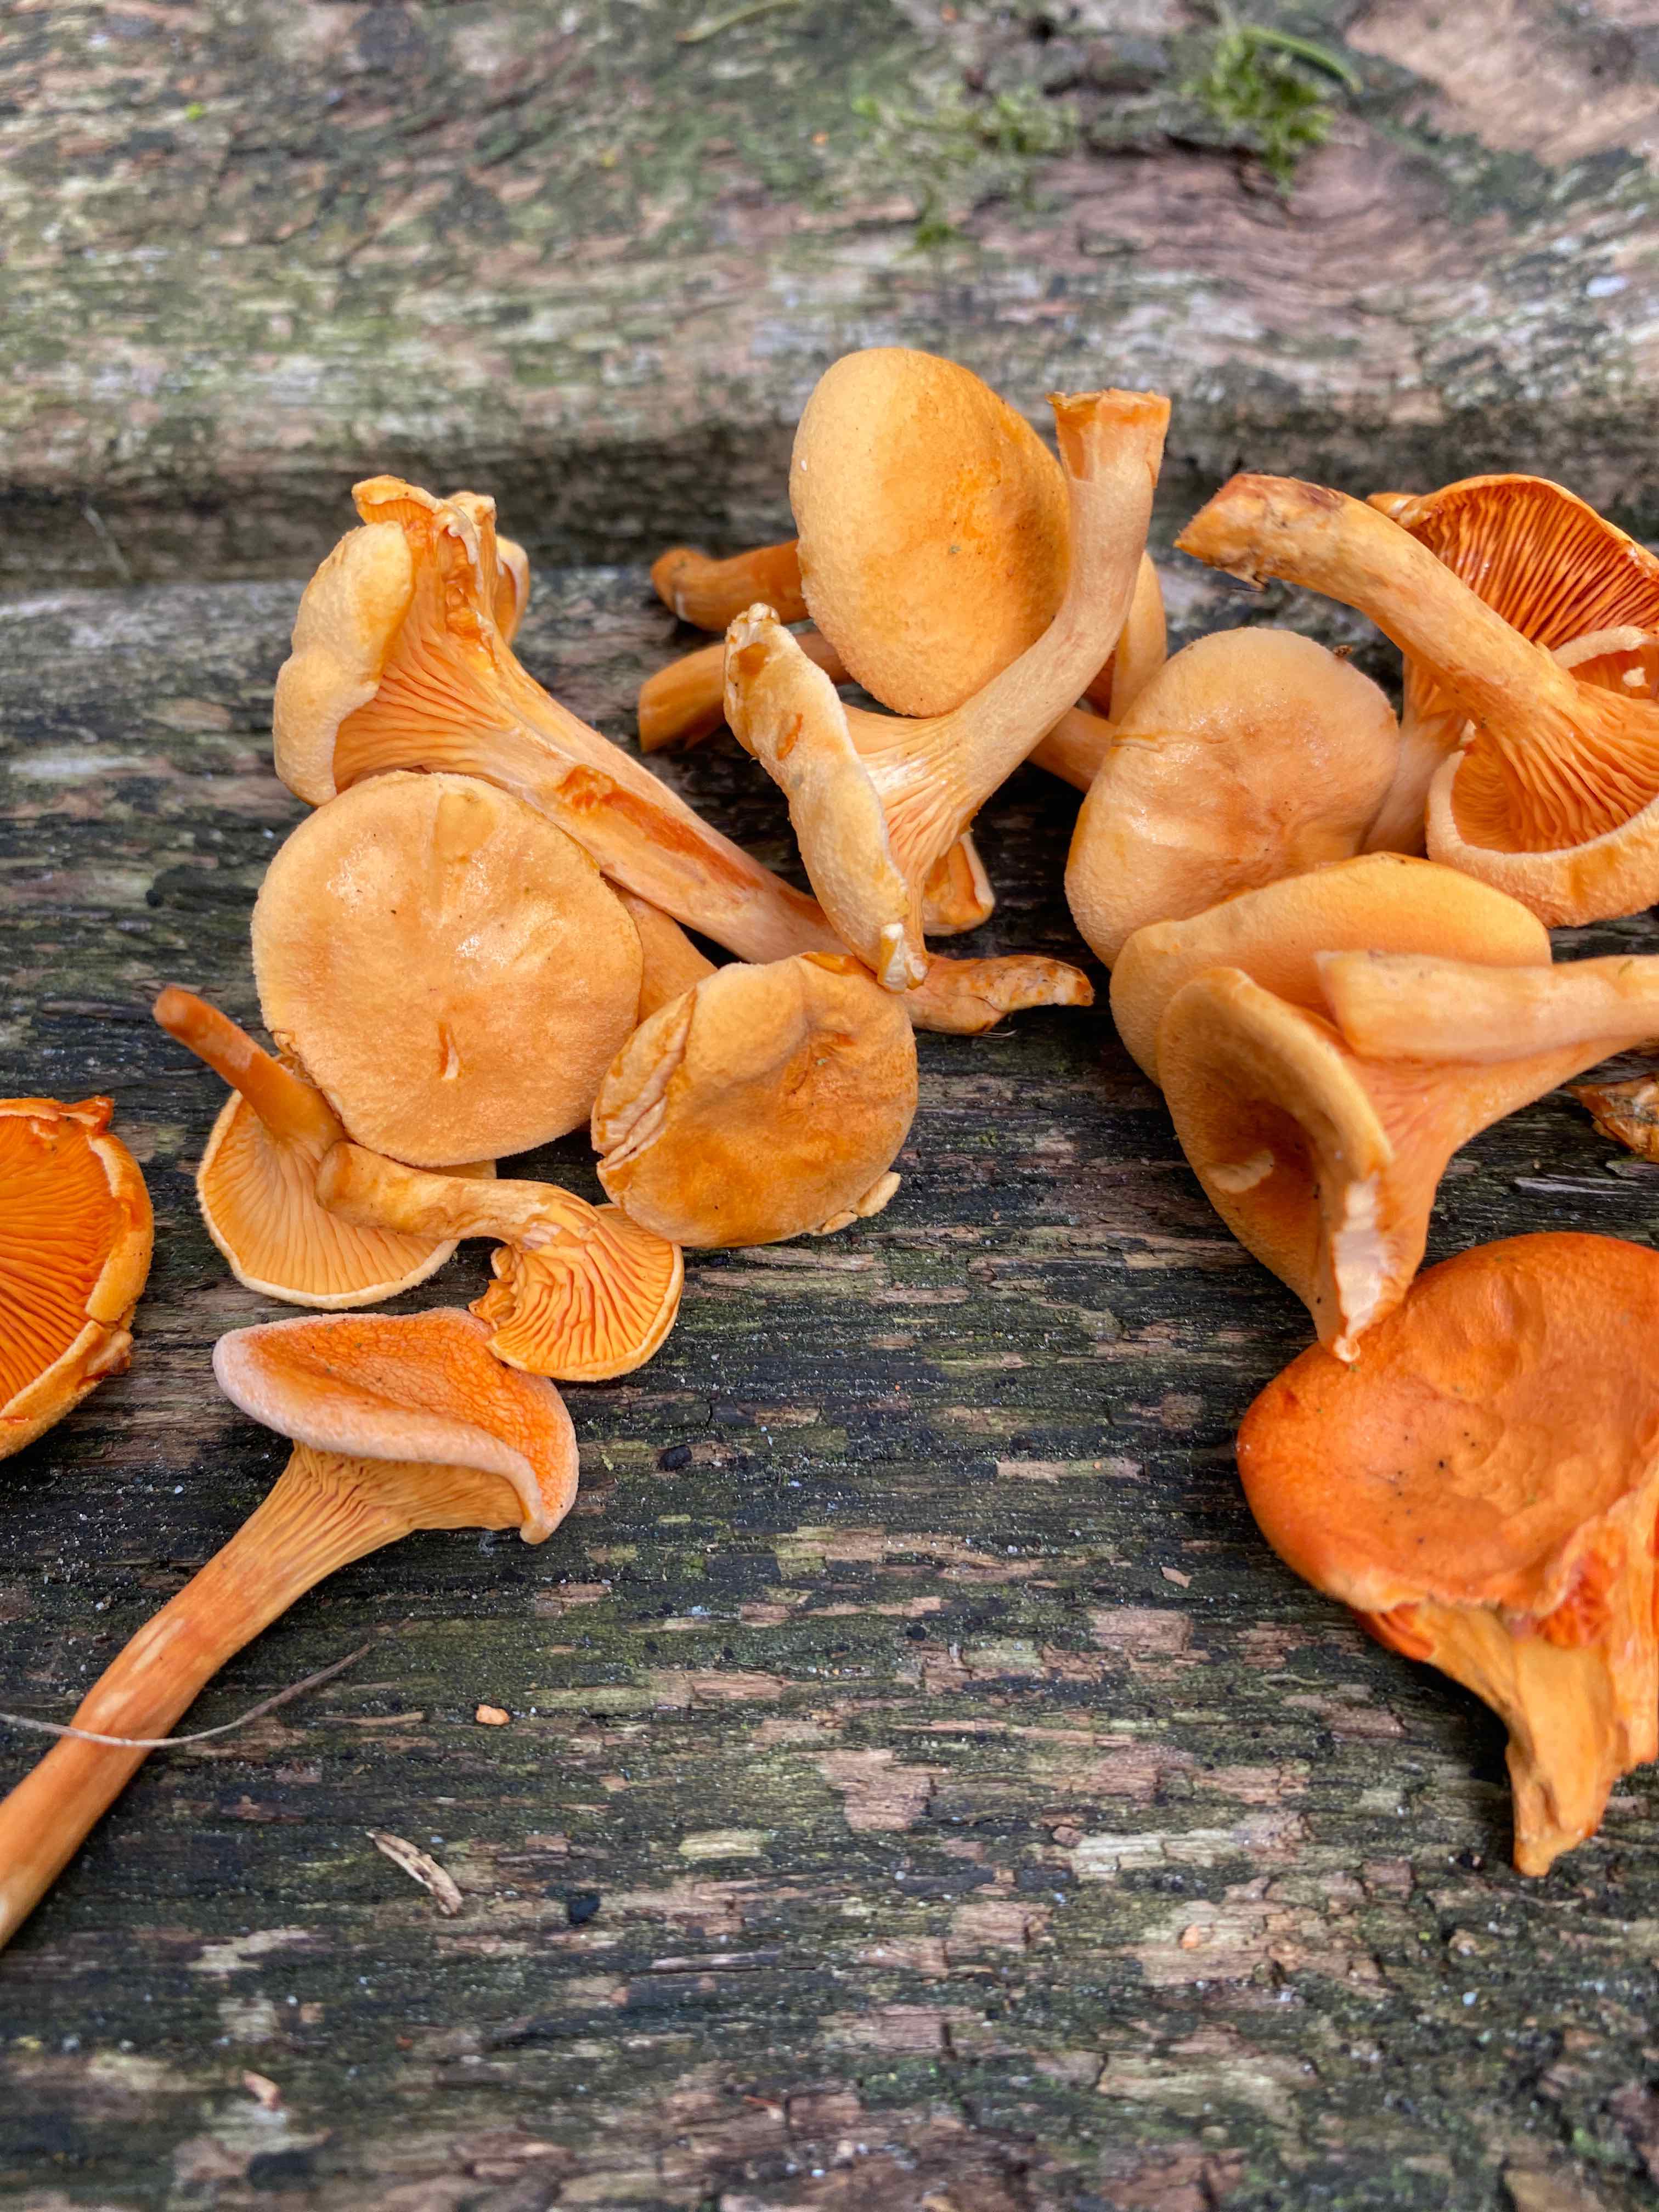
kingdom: Fungi
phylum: Basidiomycota
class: Agaricomycetes
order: Boletales
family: Hygrophoropsidaceae
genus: Hygrophoropsis
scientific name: Hygrophoropsis aurantiaca
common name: almindelig orangekantarel
